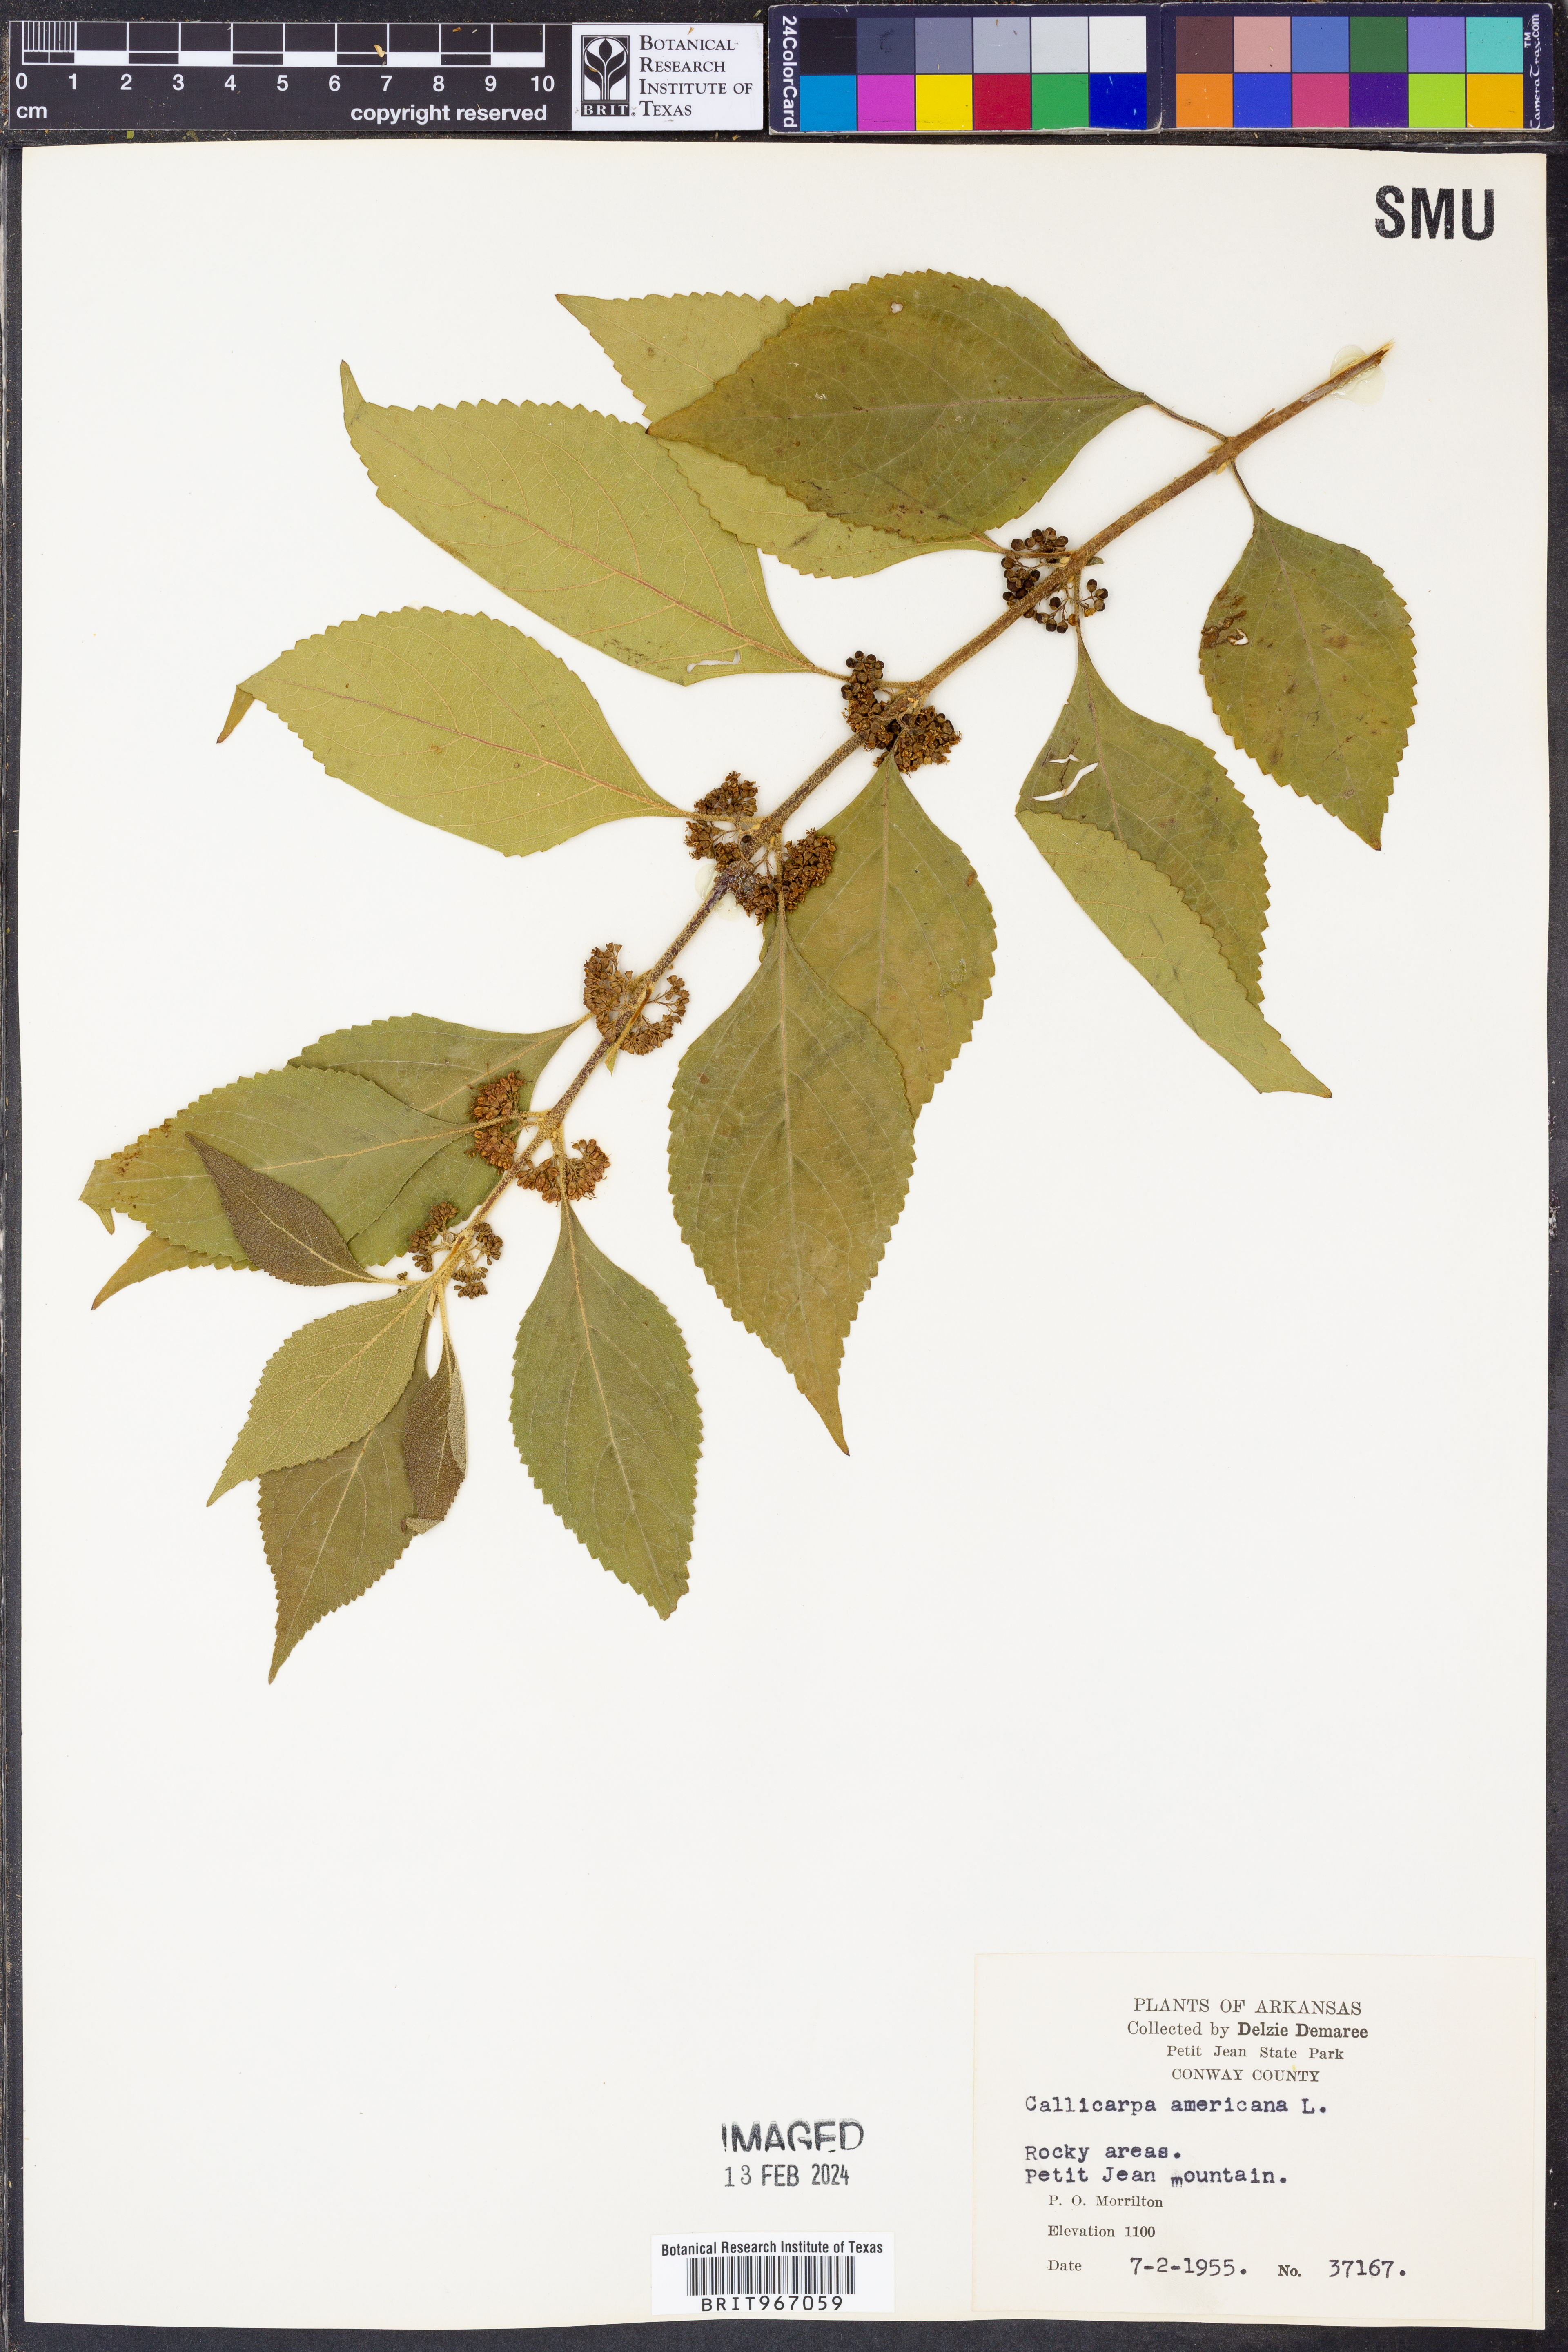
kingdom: Plantae
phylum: Tracheophyta
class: Magnoliopsida
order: Lamiales
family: Lamiaceae
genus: Callicarpa
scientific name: Callicarpa americana
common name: American beautyberry
